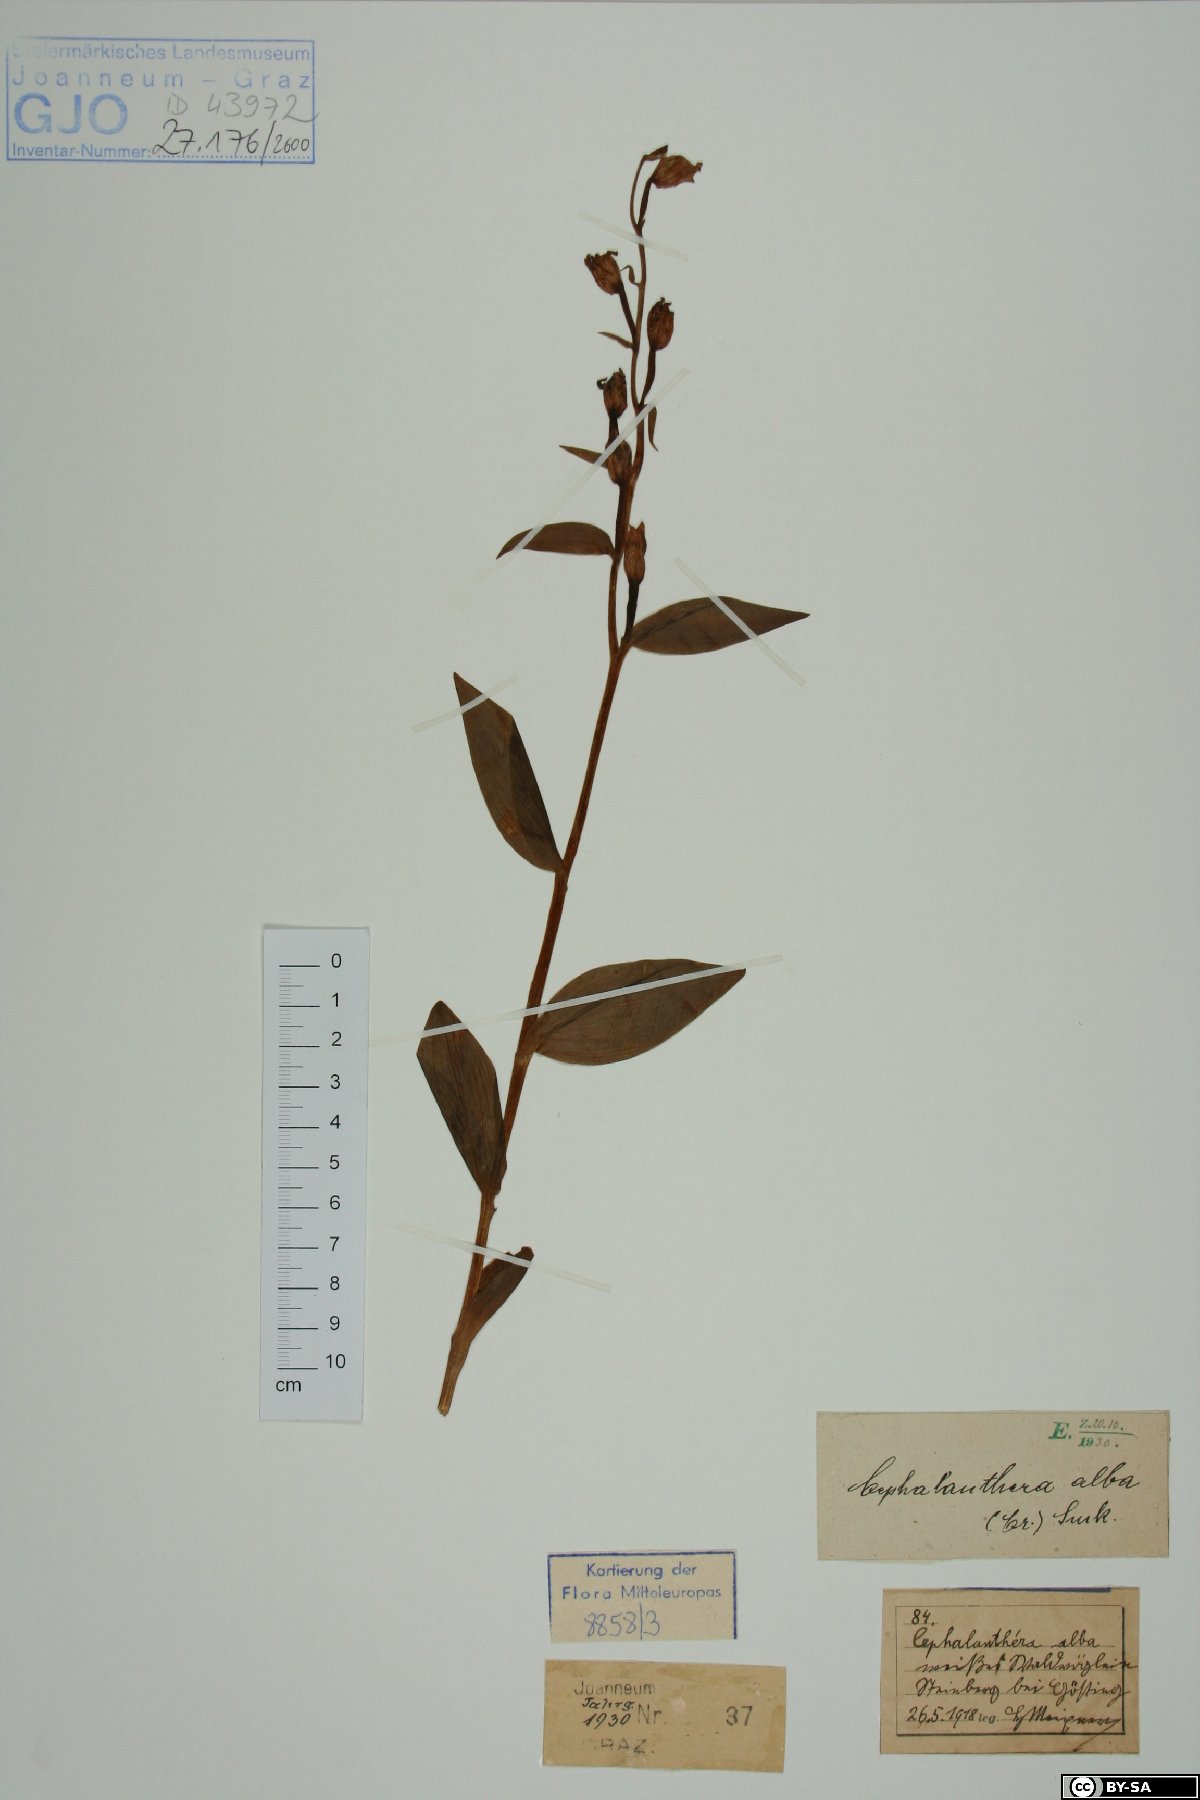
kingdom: Plantae
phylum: Tracheophyta
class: Liliopsida
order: Asparagales
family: Orchidaceae
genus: Cephalanthera
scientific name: Cephalanthera damasonium
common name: White helleborine
